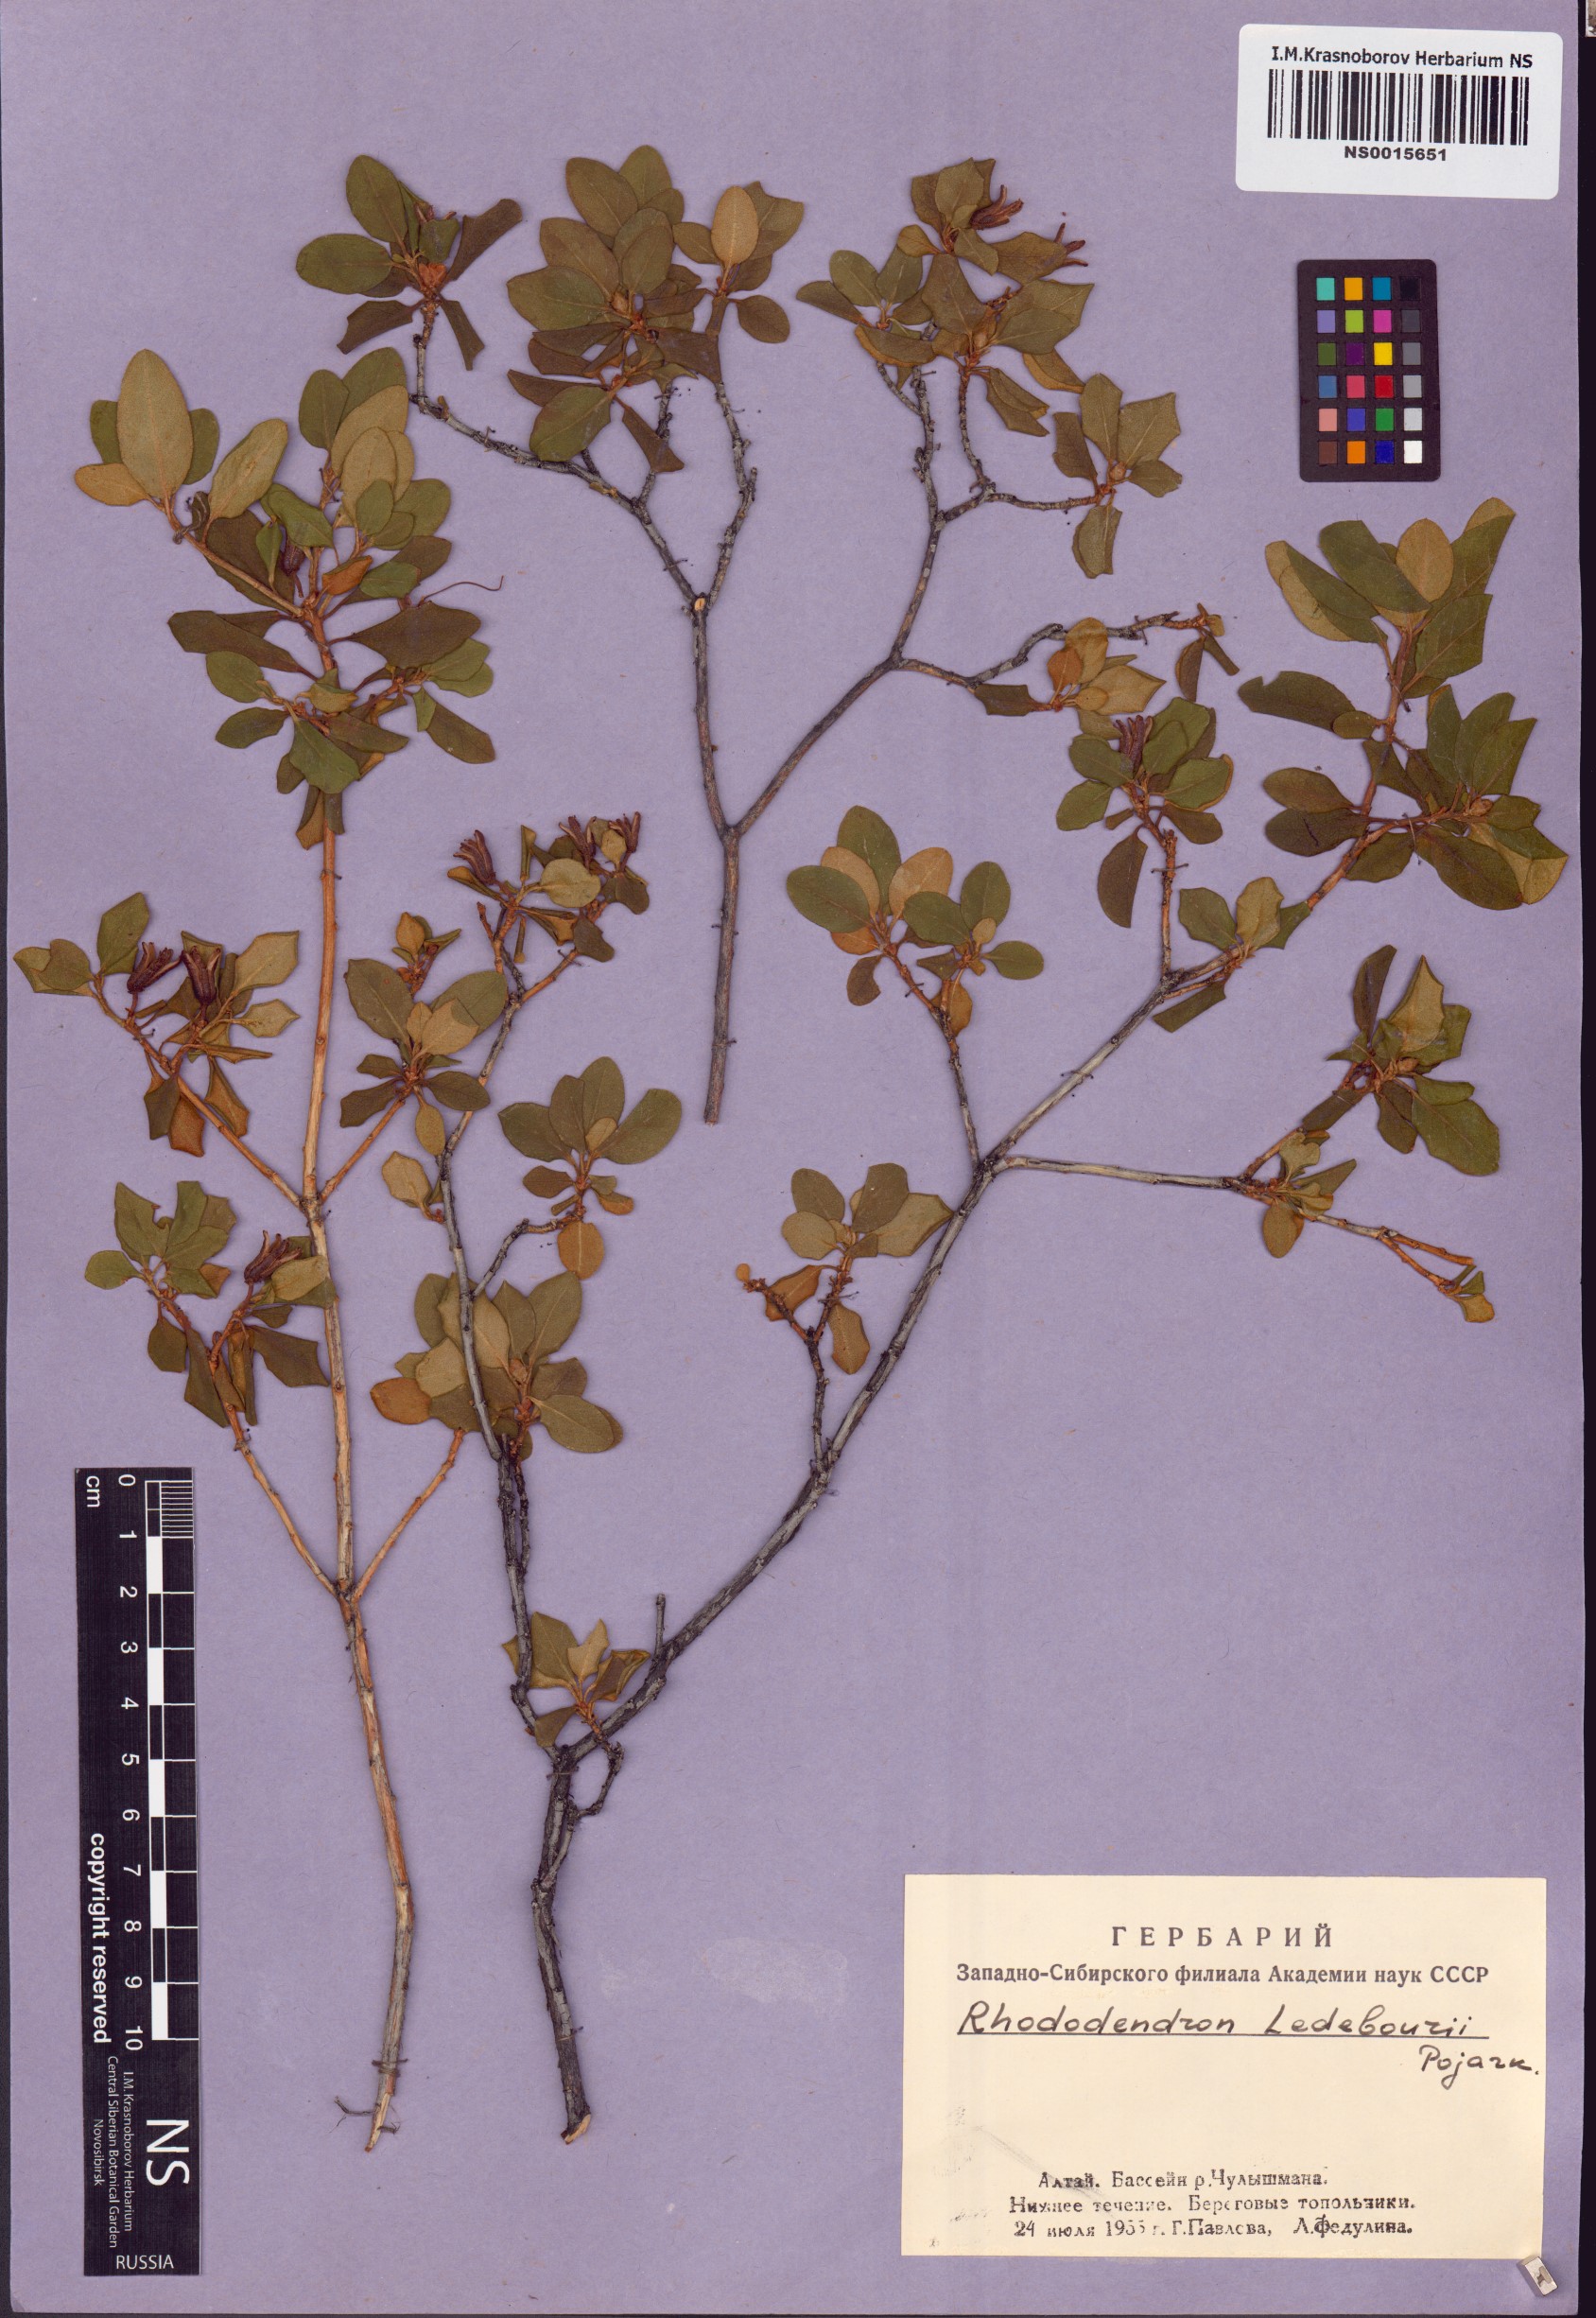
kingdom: Plantae
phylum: Tracheophyta
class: Magnoliopsida
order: Ericales
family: Ericaceae
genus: Rhododendron
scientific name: Rhododendron dauricum
